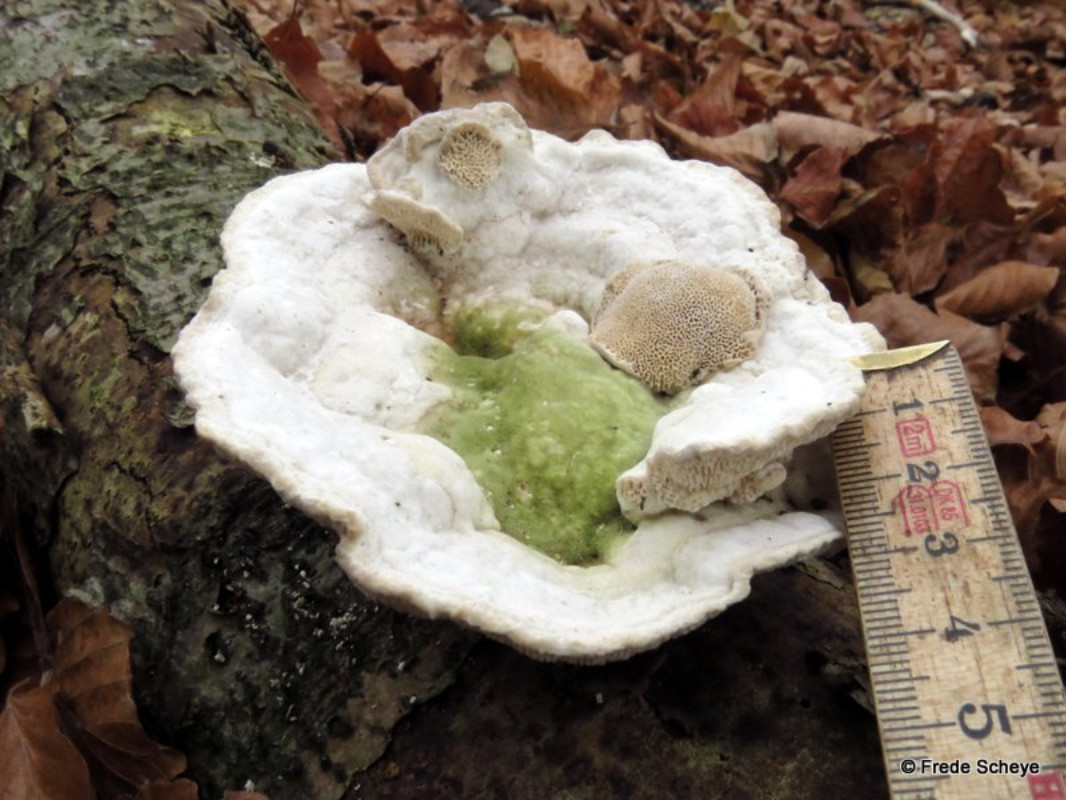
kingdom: Fungi
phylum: Basidiomycota
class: Agaricomycetes
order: Polyporales
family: Polyporaceae
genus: Trametes
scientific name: Trametes gibbosa
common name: puklet læderporesvamp
